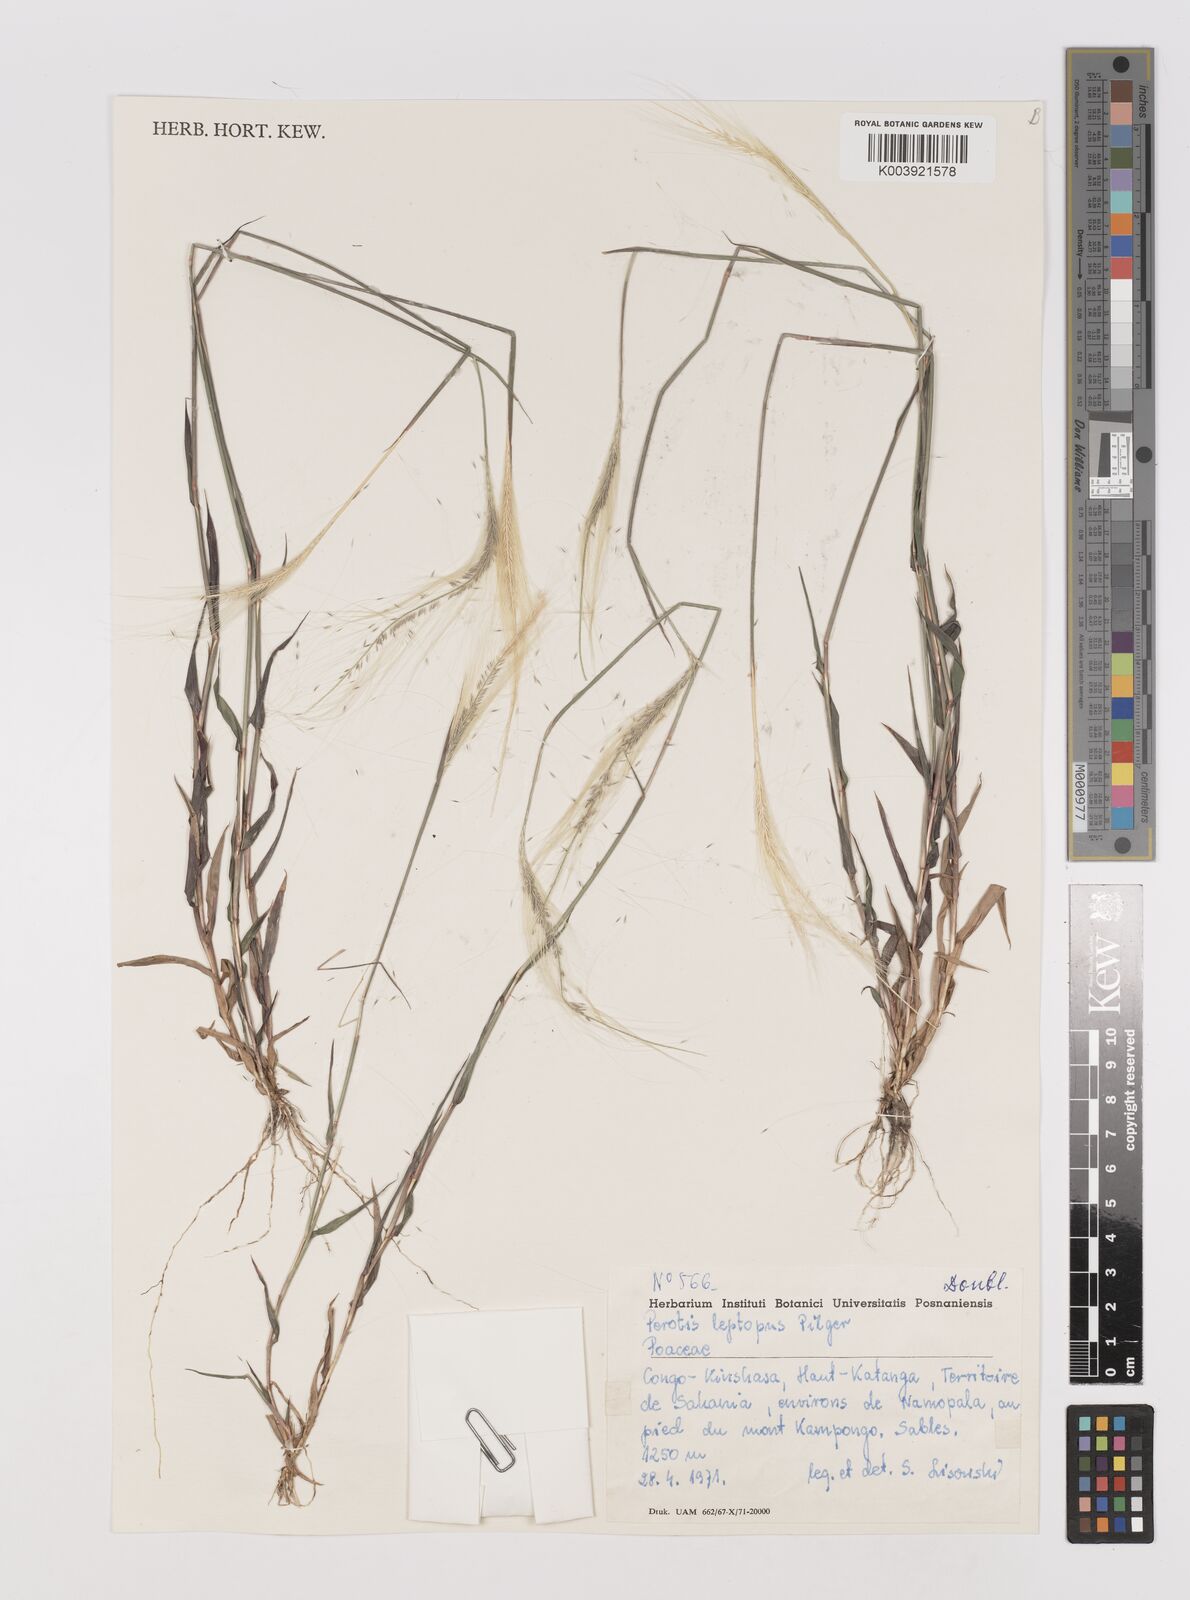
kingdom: Plantae
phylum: Tracheophyta
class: Liliopsida
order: Poales
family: Poaceae
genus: Perotis
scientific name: Perotis leptopus
